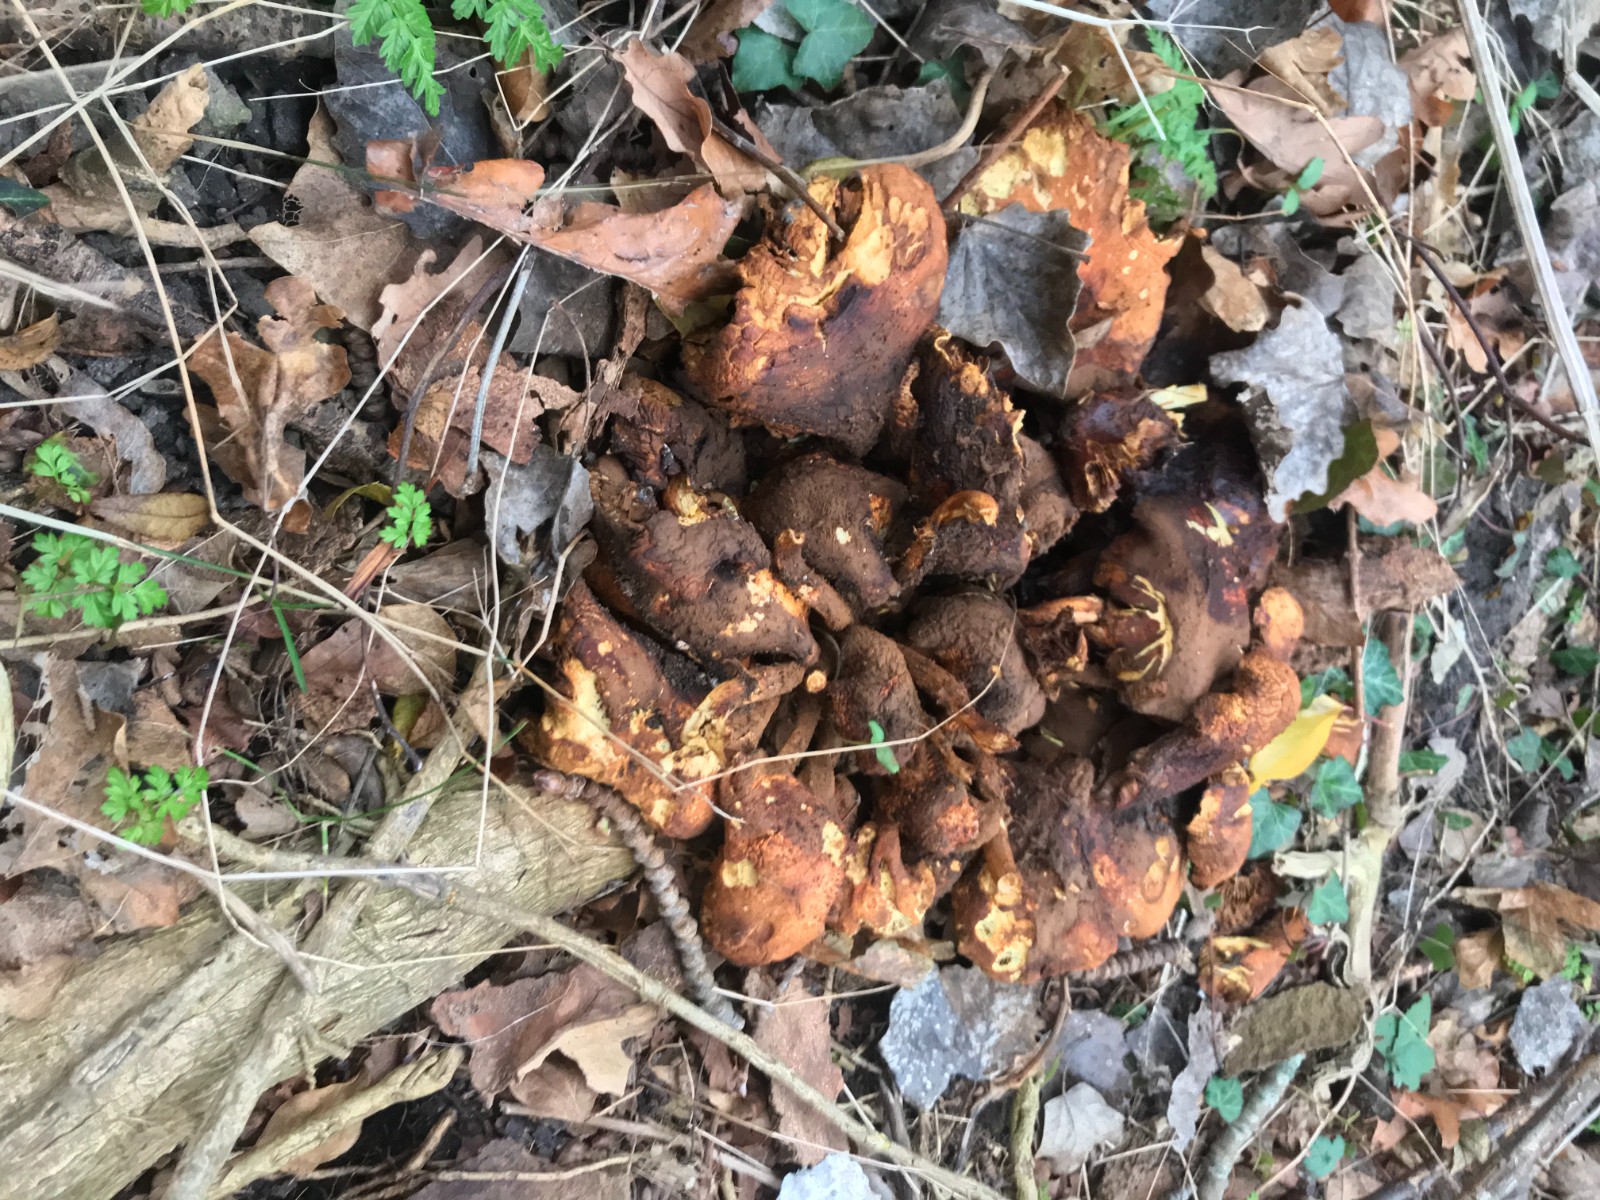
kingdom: Fungi
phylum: Basidiomycota
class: Agaricomycetes
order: Agaricales
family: Strophariaceae
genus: Pholiota
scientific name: Pholiota squarrosa
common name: krumskællet skælhat
